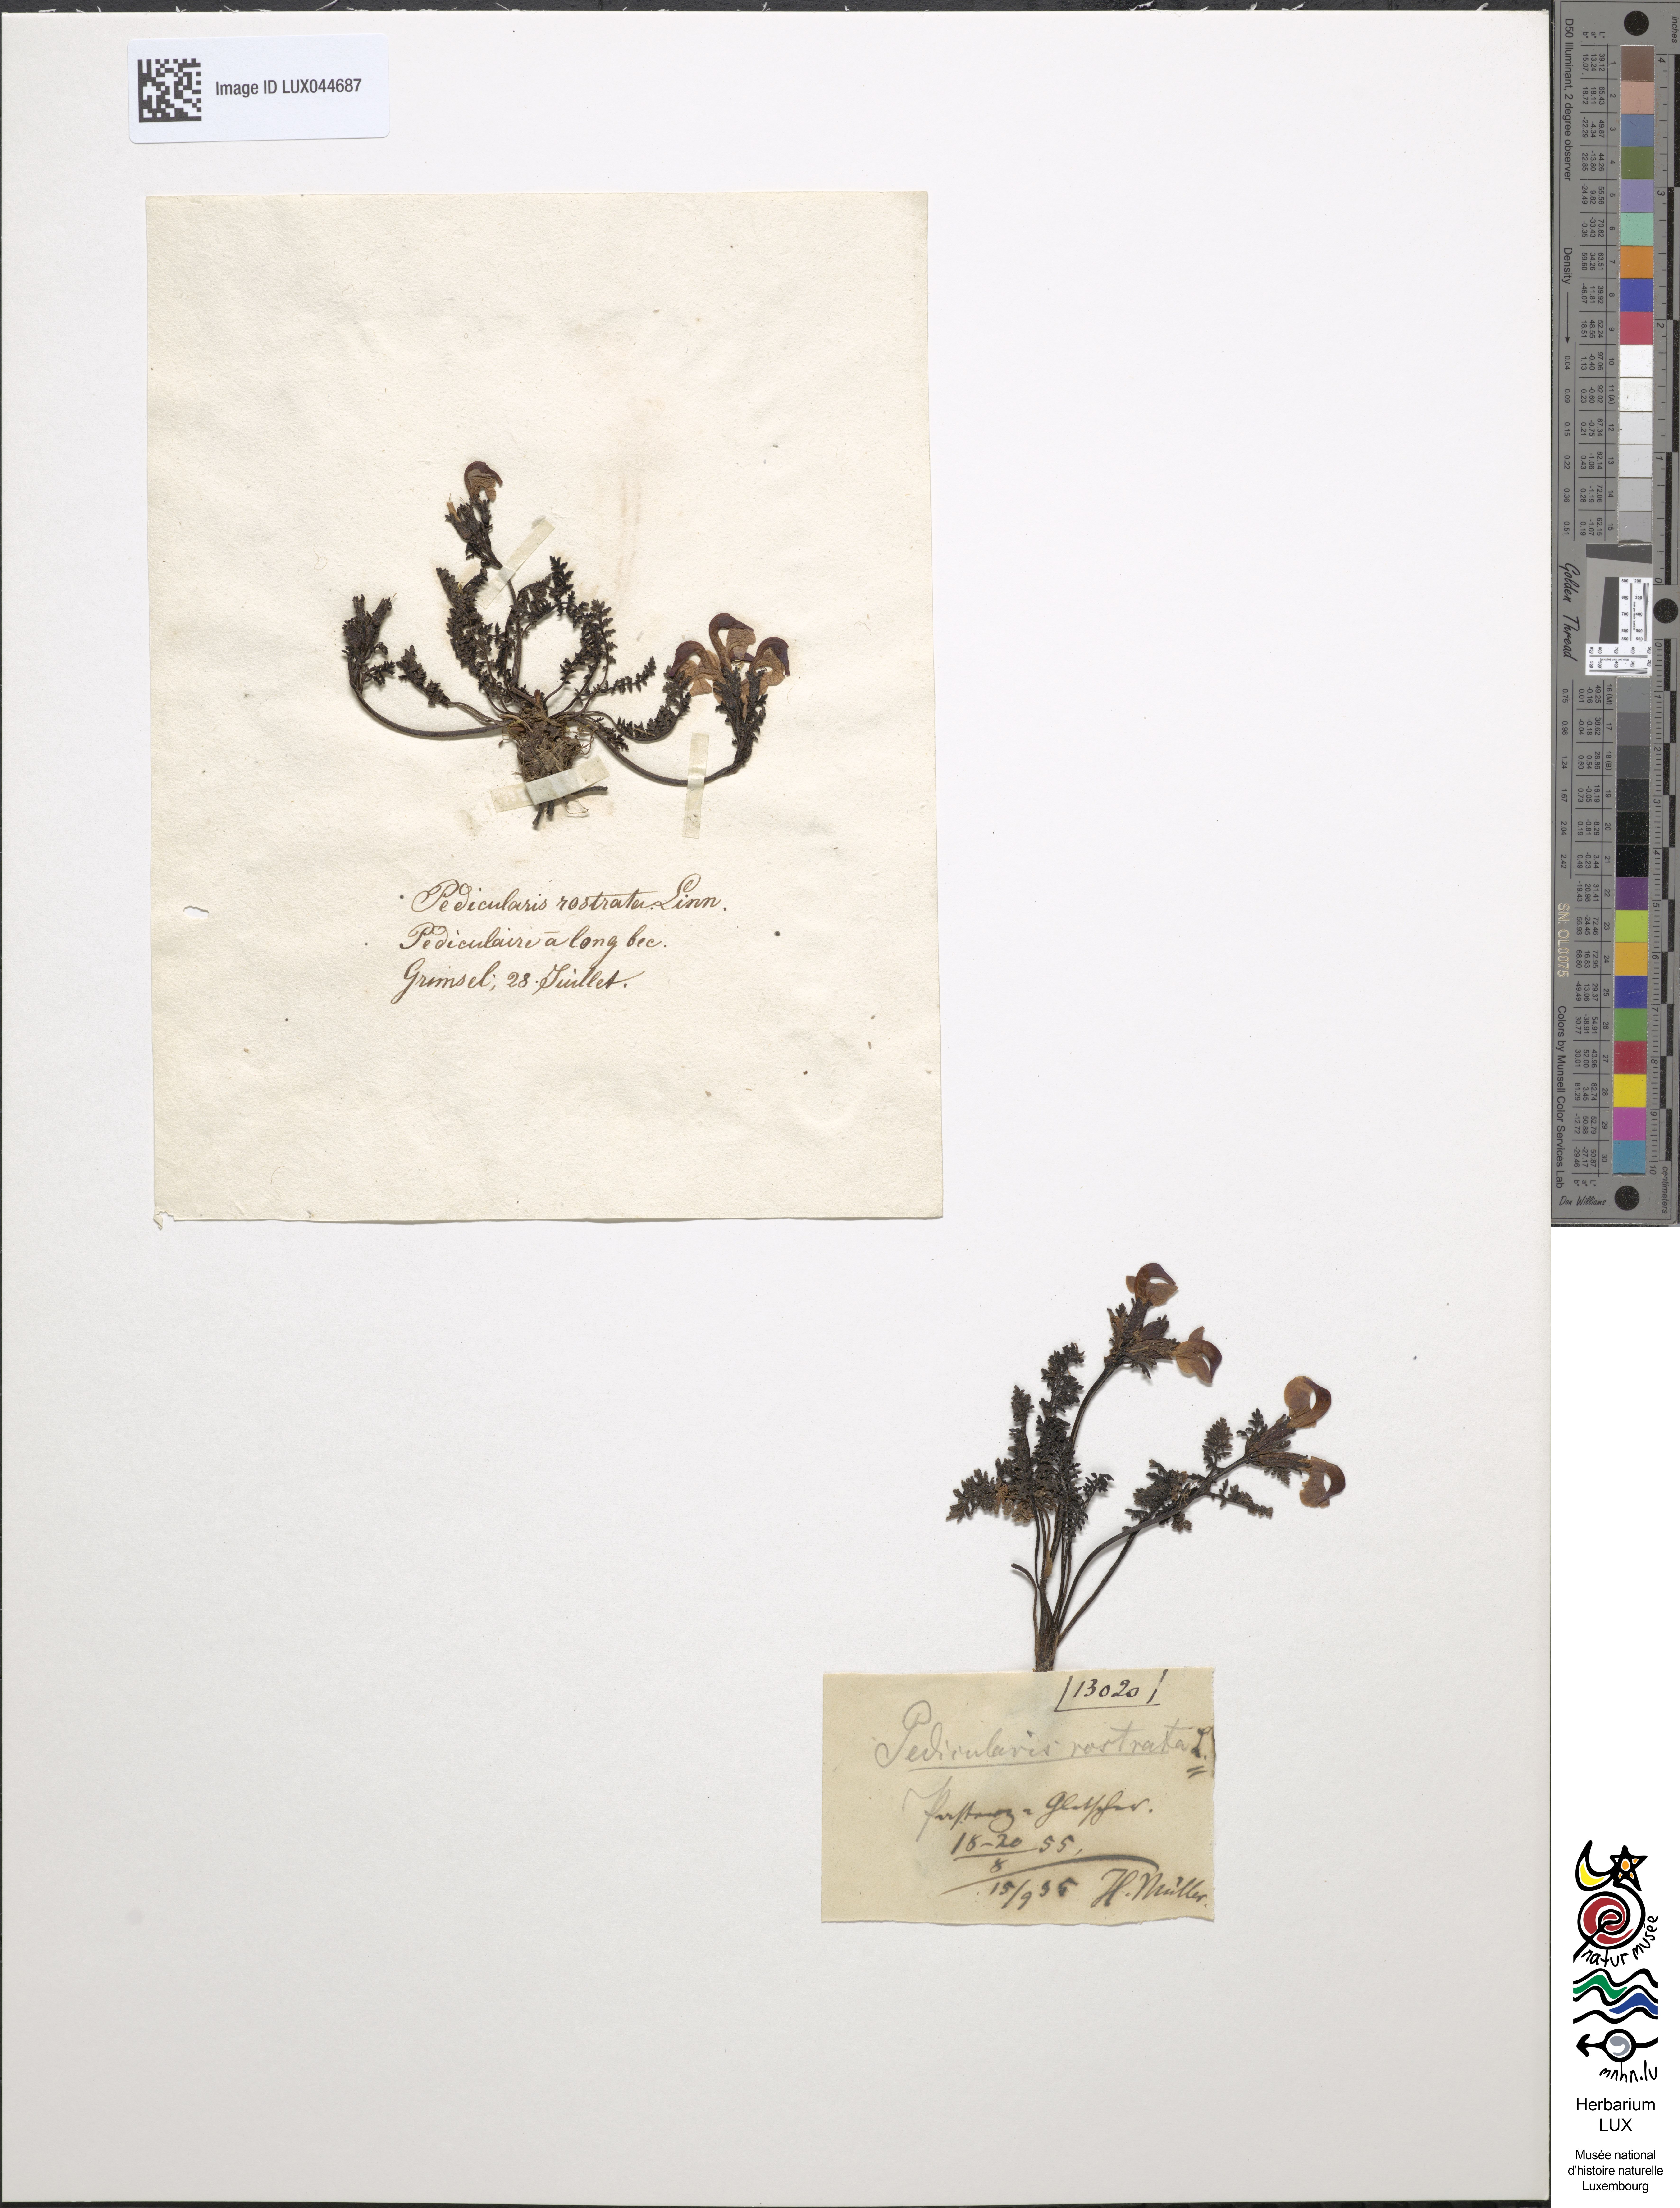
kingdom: Plantae
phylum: Tracheophyta
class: Magnoliopsida
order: Lamiales
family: Orobanchaceae
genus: Pedicularis
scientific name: Pedicularis rostratocapitata
